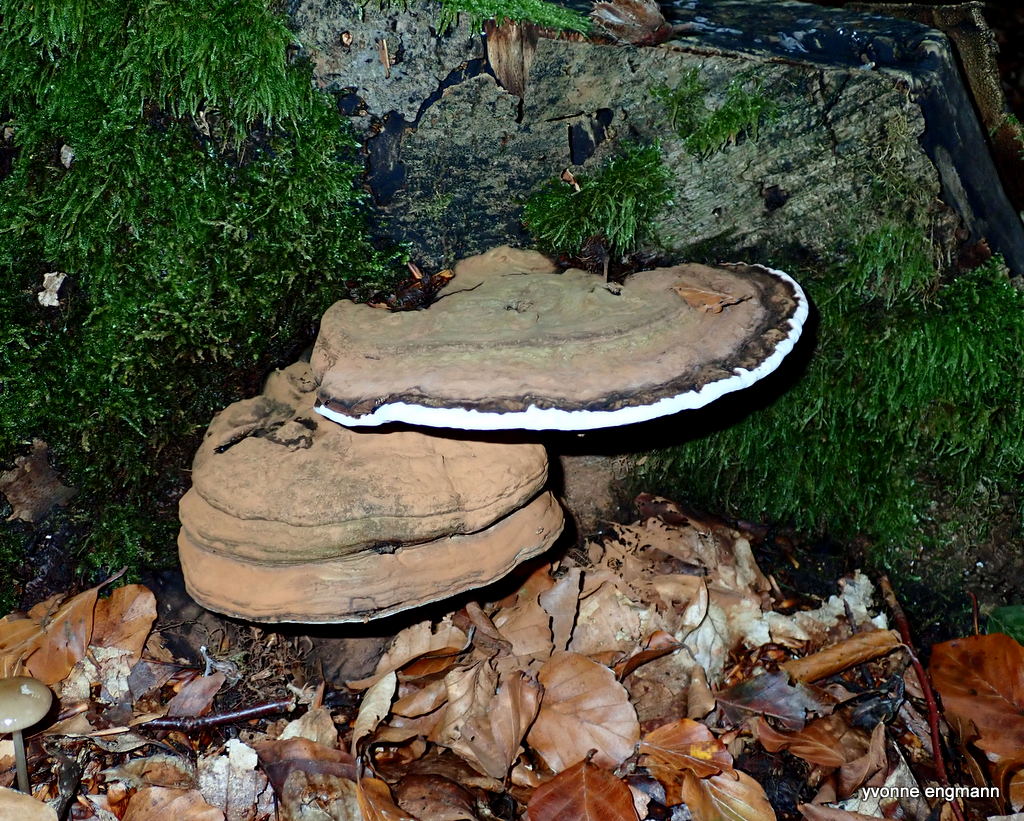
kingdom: Fungi
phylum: Basidiomycota
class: Agaricomycetes
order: Polyporales
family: Polyporaceae
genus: Ganoderma
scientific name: Ganoderma applanatum
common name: flad lakporesvamp
